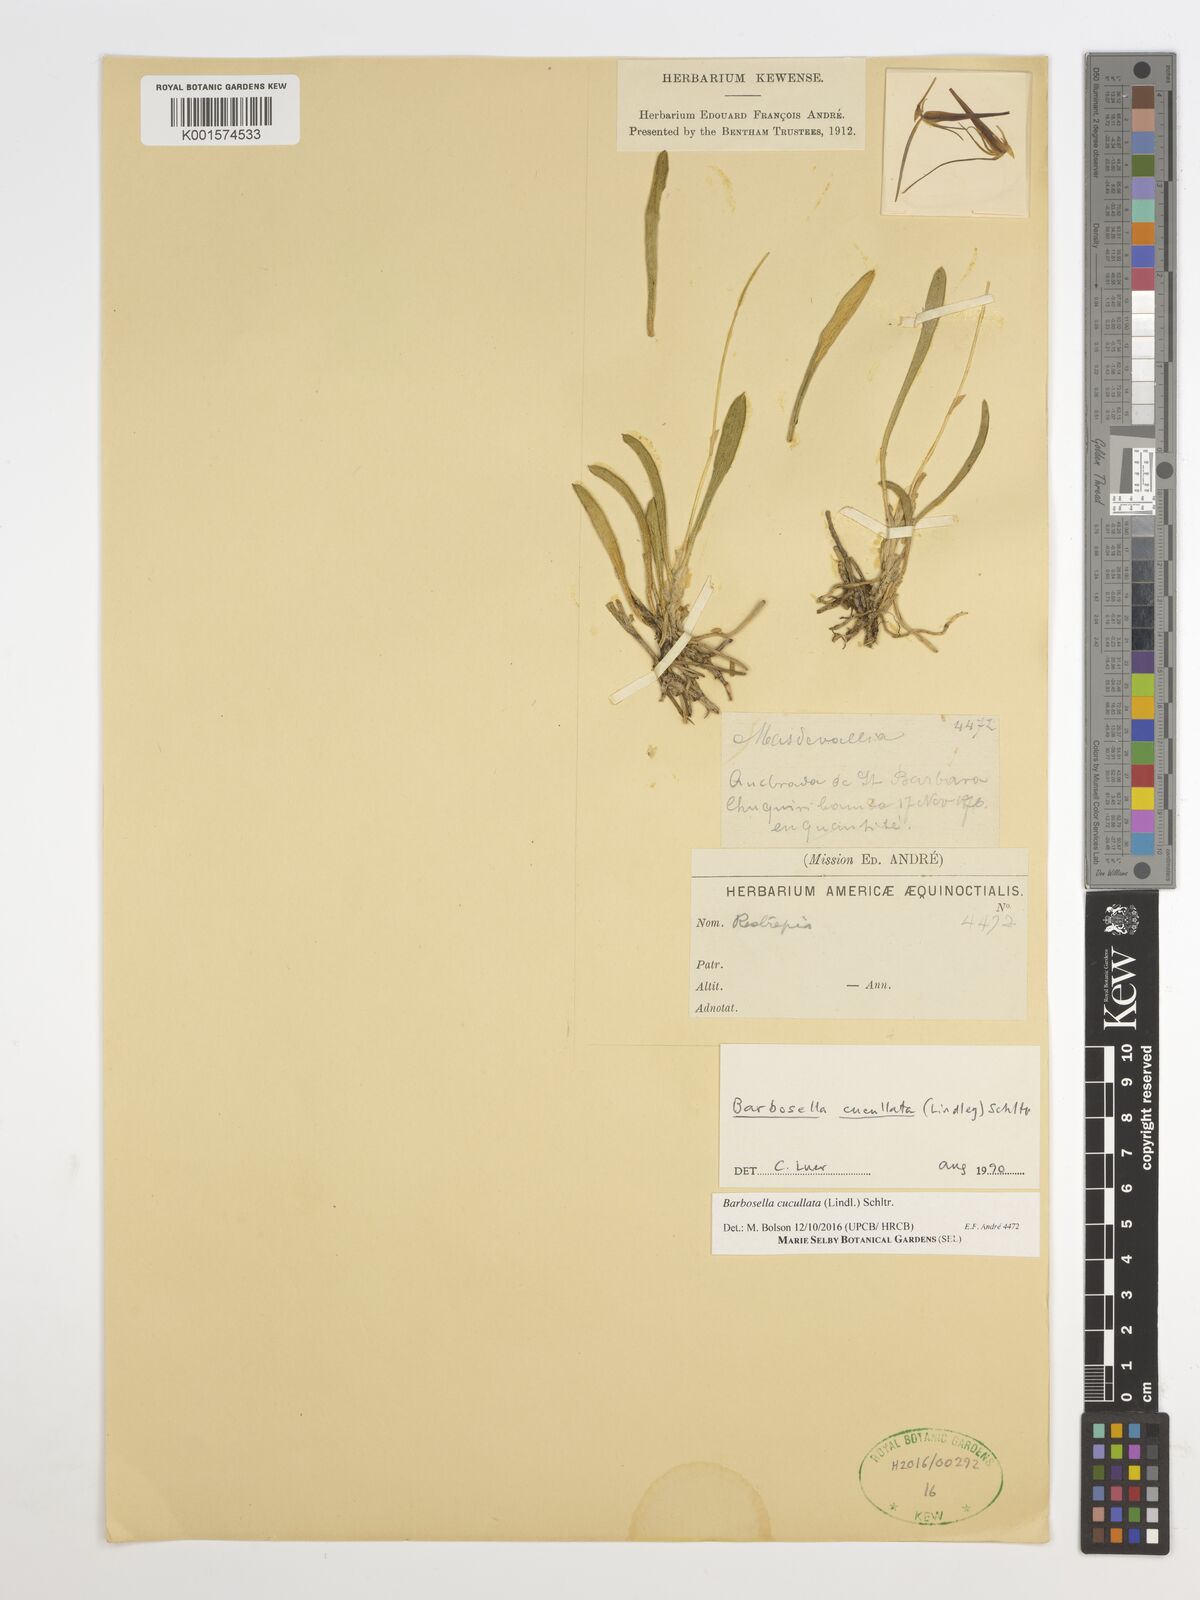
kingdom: Plantae
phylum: Tracheophyta
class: Liliopsida
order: Asparagales
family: Orchidaceae
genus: Barbosella
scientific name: Barbosella cucullata
